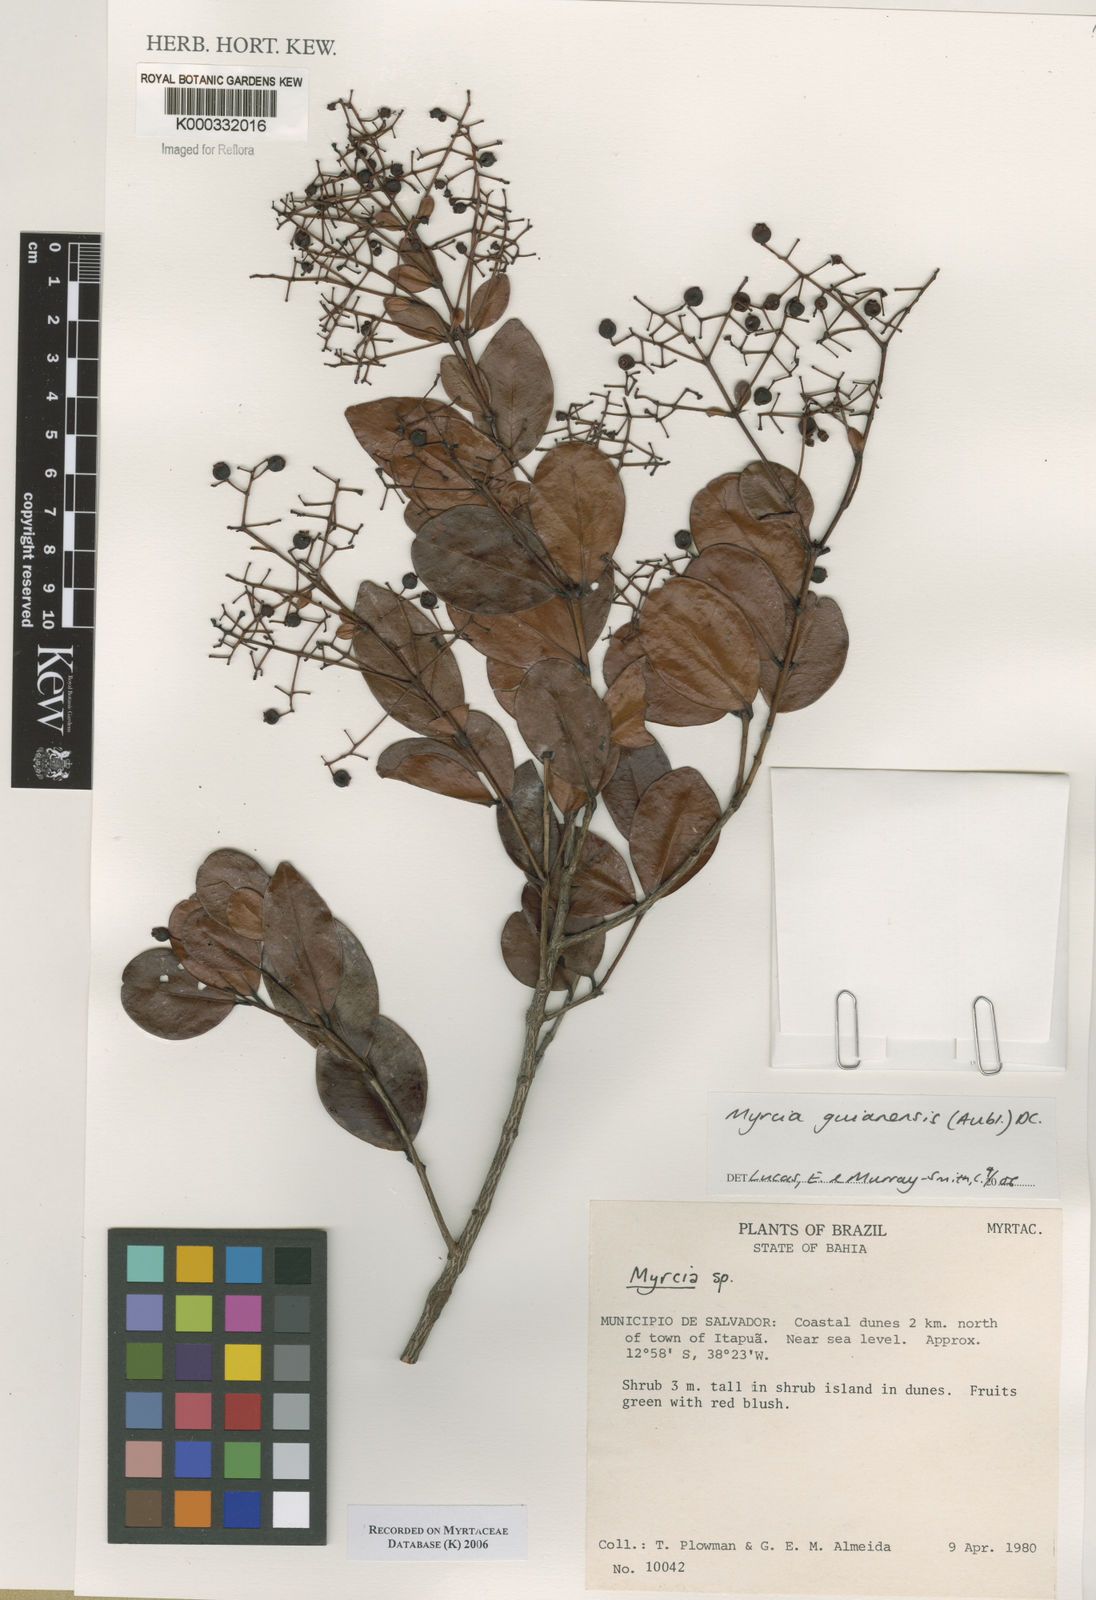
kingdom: Plantae
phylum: Tracheophyta
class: Magnoliopsida
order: Myrtales
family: Myrtaceae
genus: Myrcia
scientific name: Myrcia guianensis
